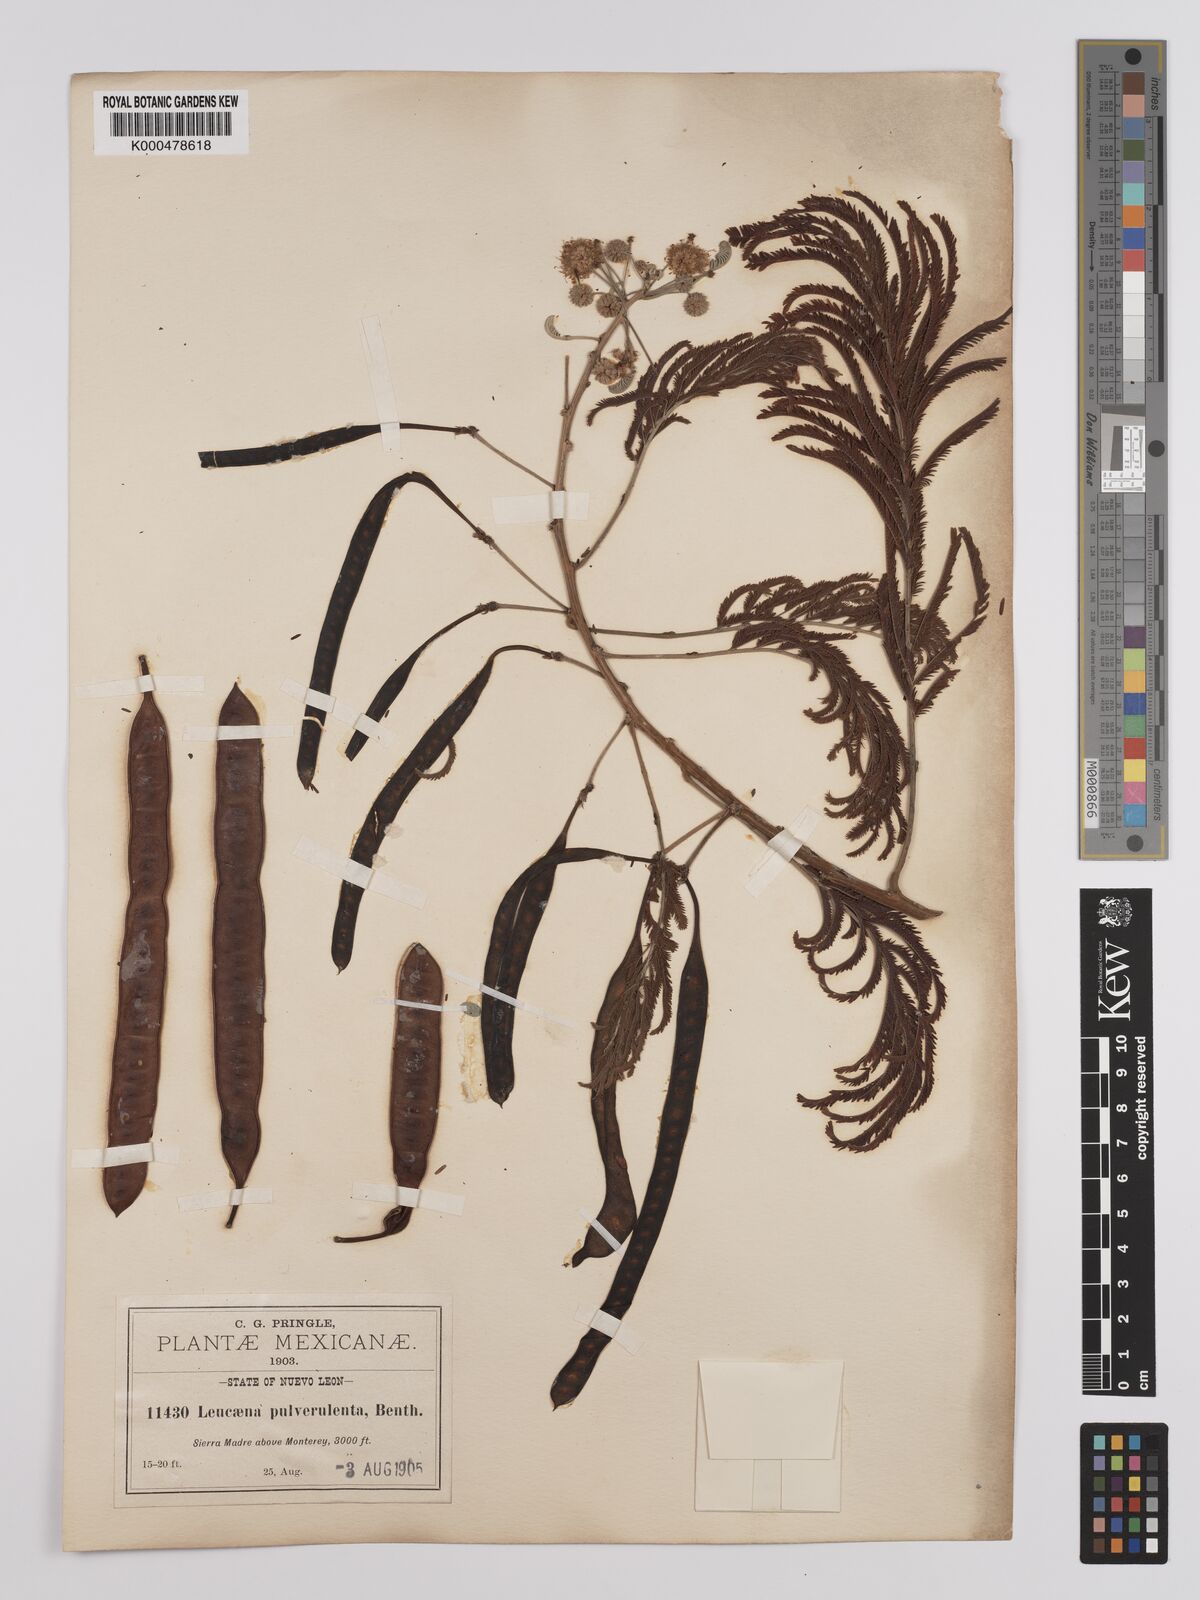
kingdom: Plantae
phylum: Tracheophyta
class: Magnoliopsida
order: Fabales
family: Fabaceae
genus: Leucaena
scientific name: Leucaena pulverulenta
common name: Great leadtree
